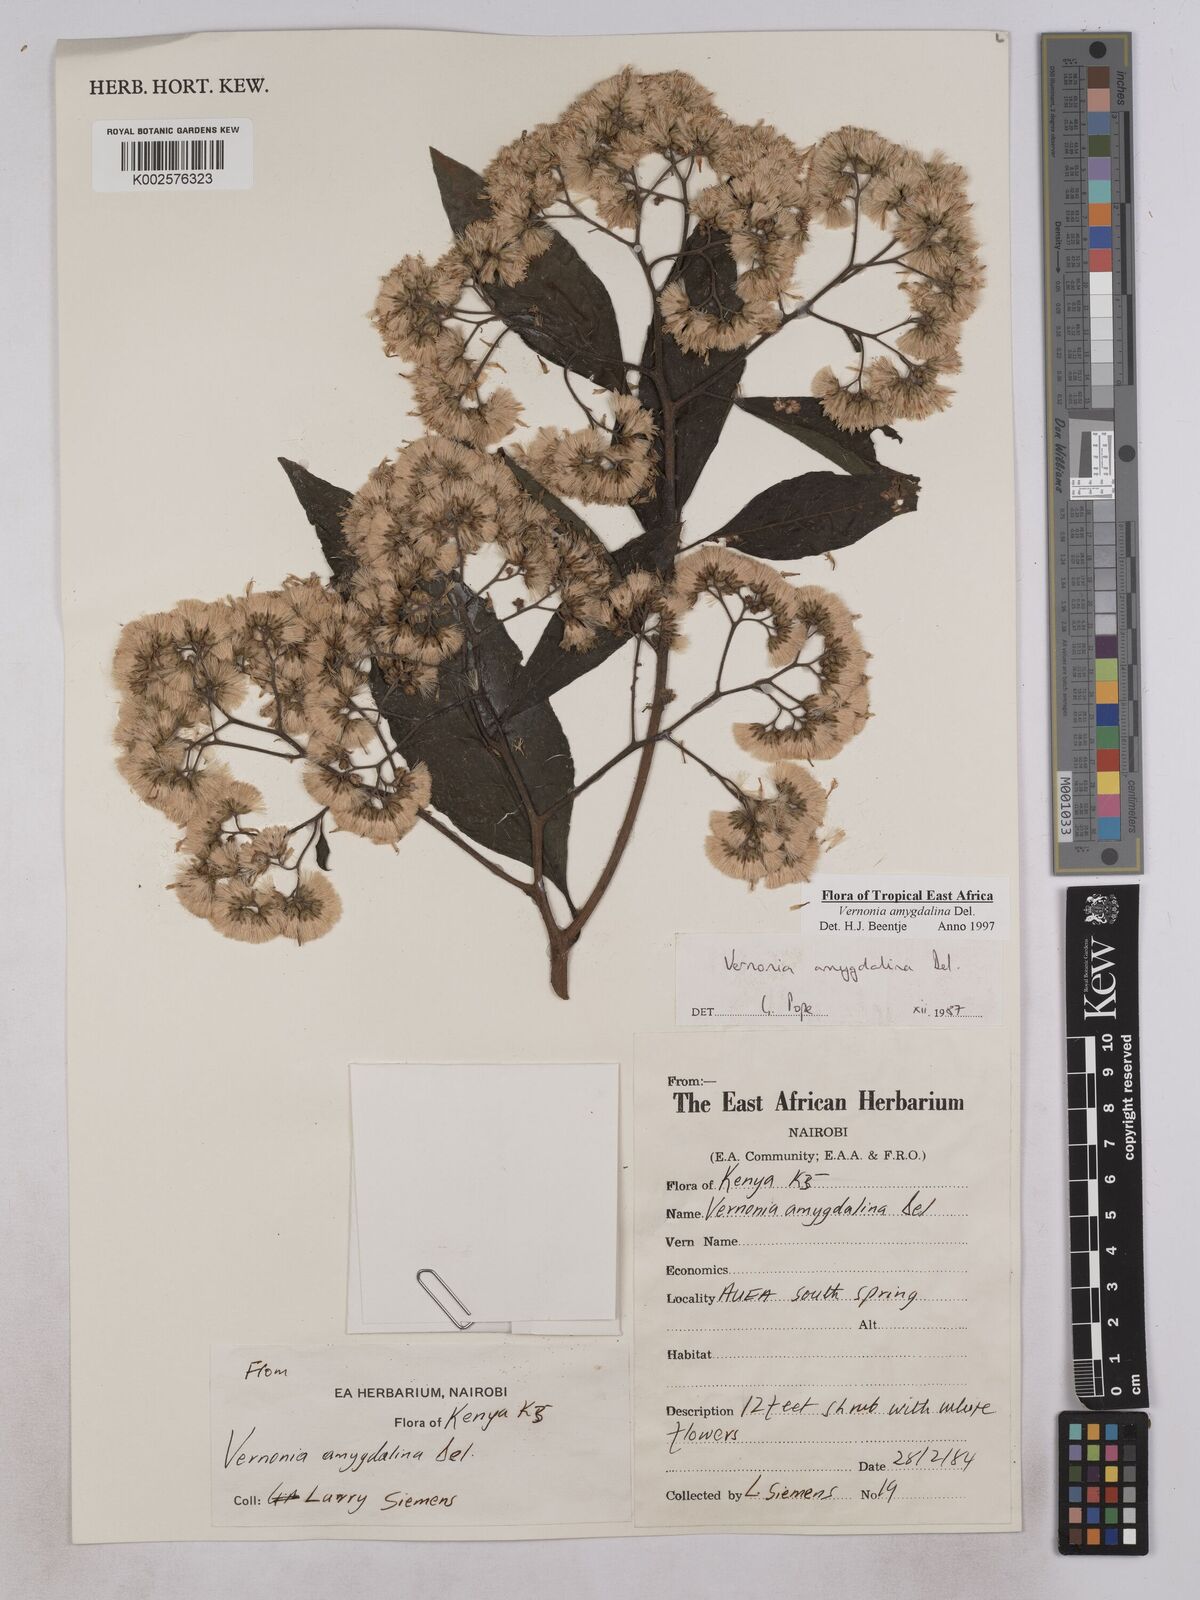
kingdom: Plantae
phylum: Tracheophyta
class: Magnoliopsida
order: Asterales
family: Asteraceae
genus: Gymnanthemum
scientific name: Gymnanthemum amygdalinum
